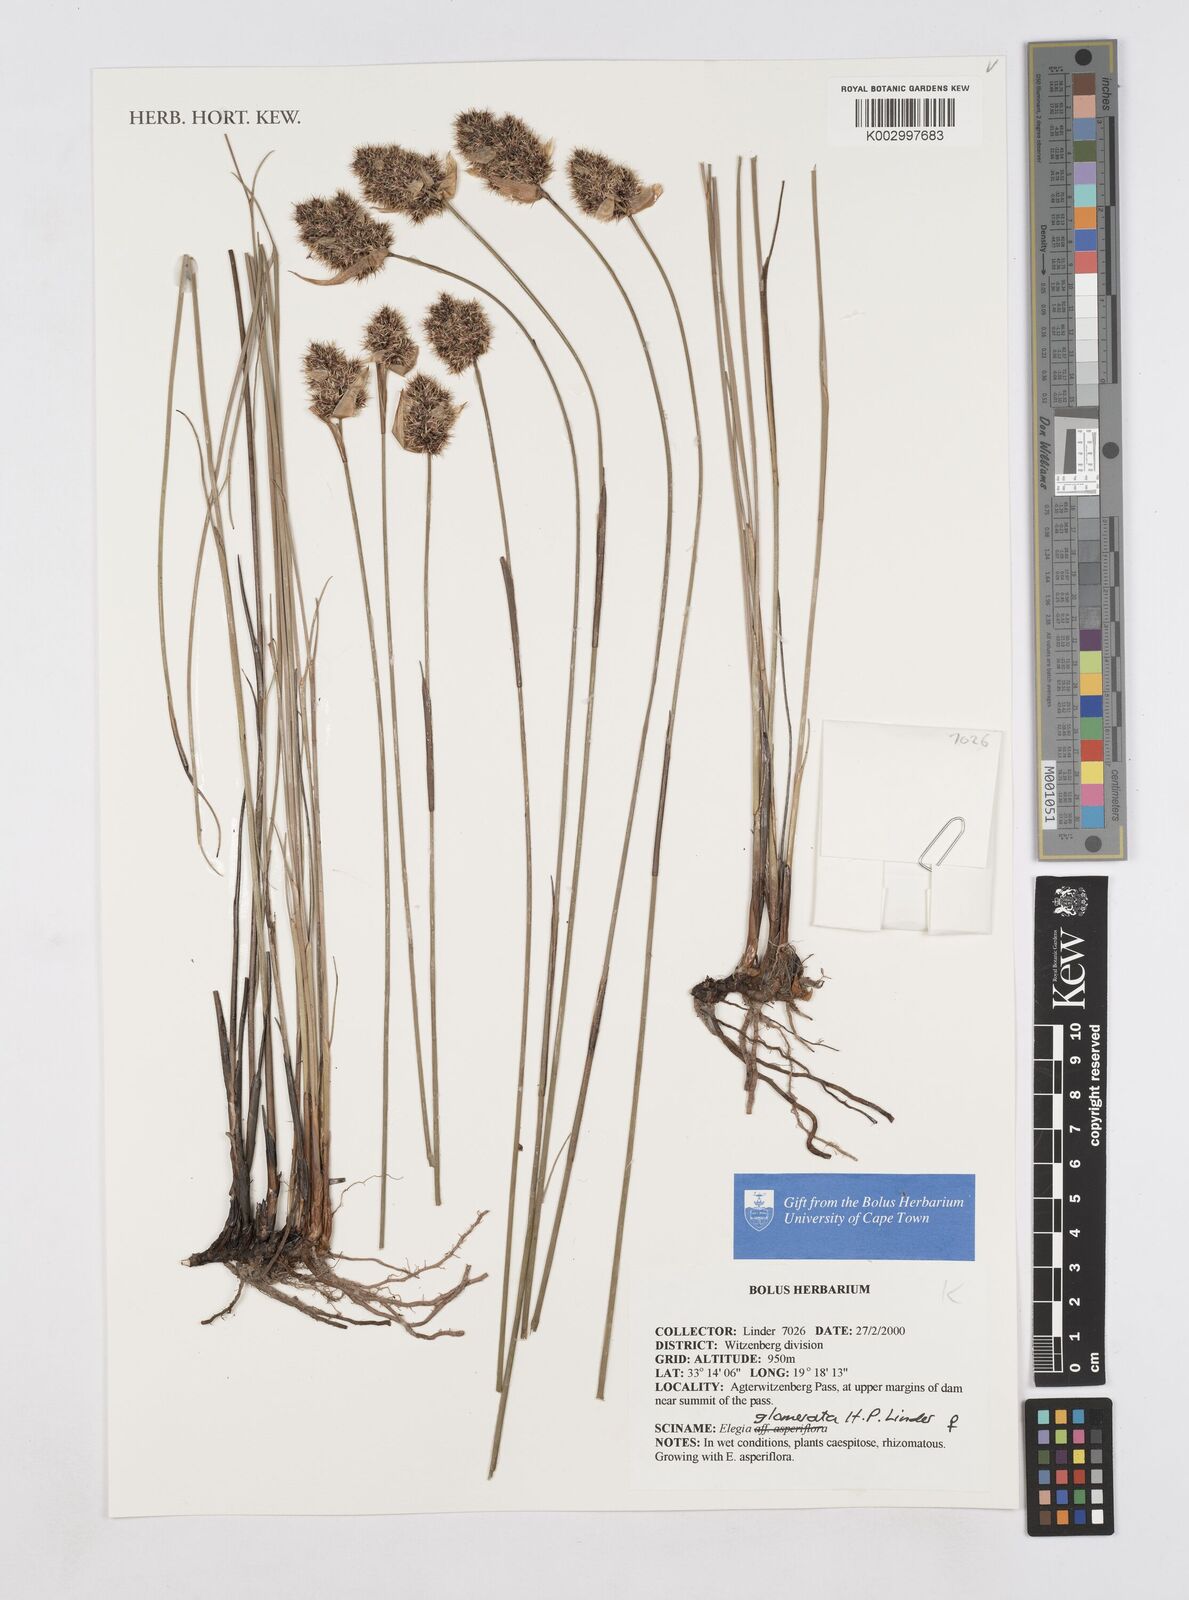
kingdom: Plantae
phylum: Tracheophyta
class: Liliopsida
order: Poales
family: Restionaceae
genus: Elegia
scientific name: Elegia
